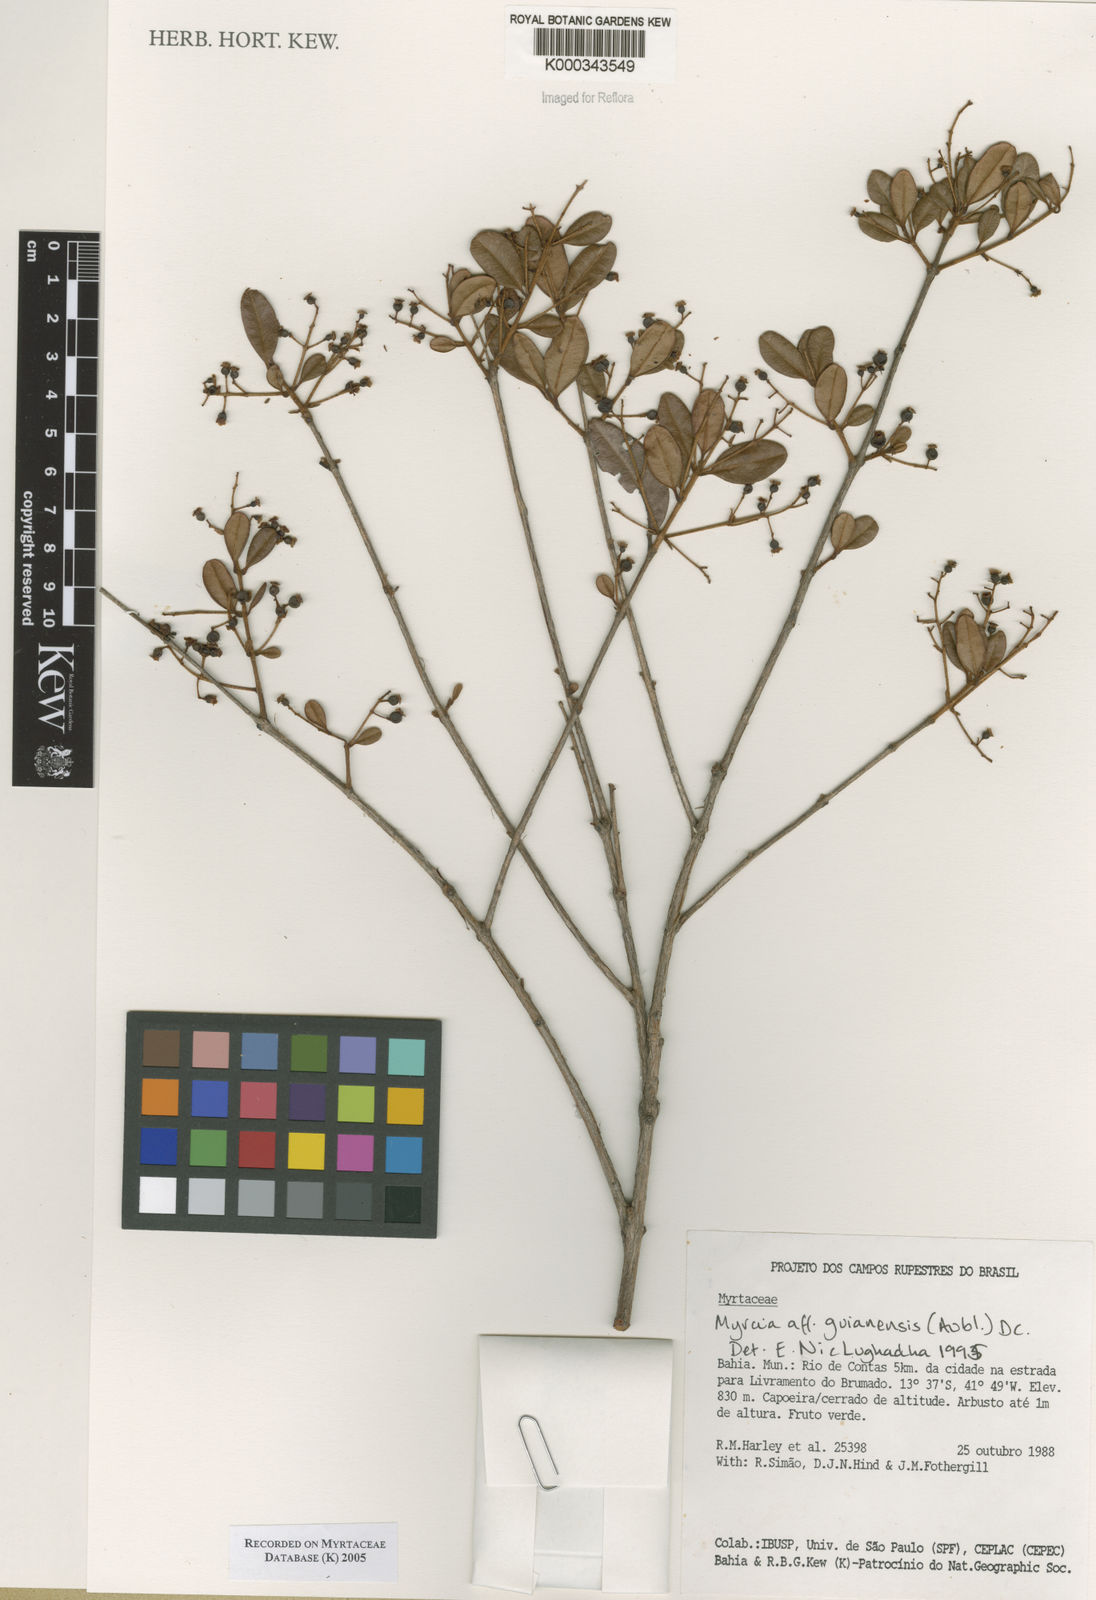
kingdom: Plantae
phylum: Tracheophyta
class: Magnoliopsida
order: Myrtales
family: Myrtaceae
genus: Myrcia
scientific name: Myrcia guianensis
